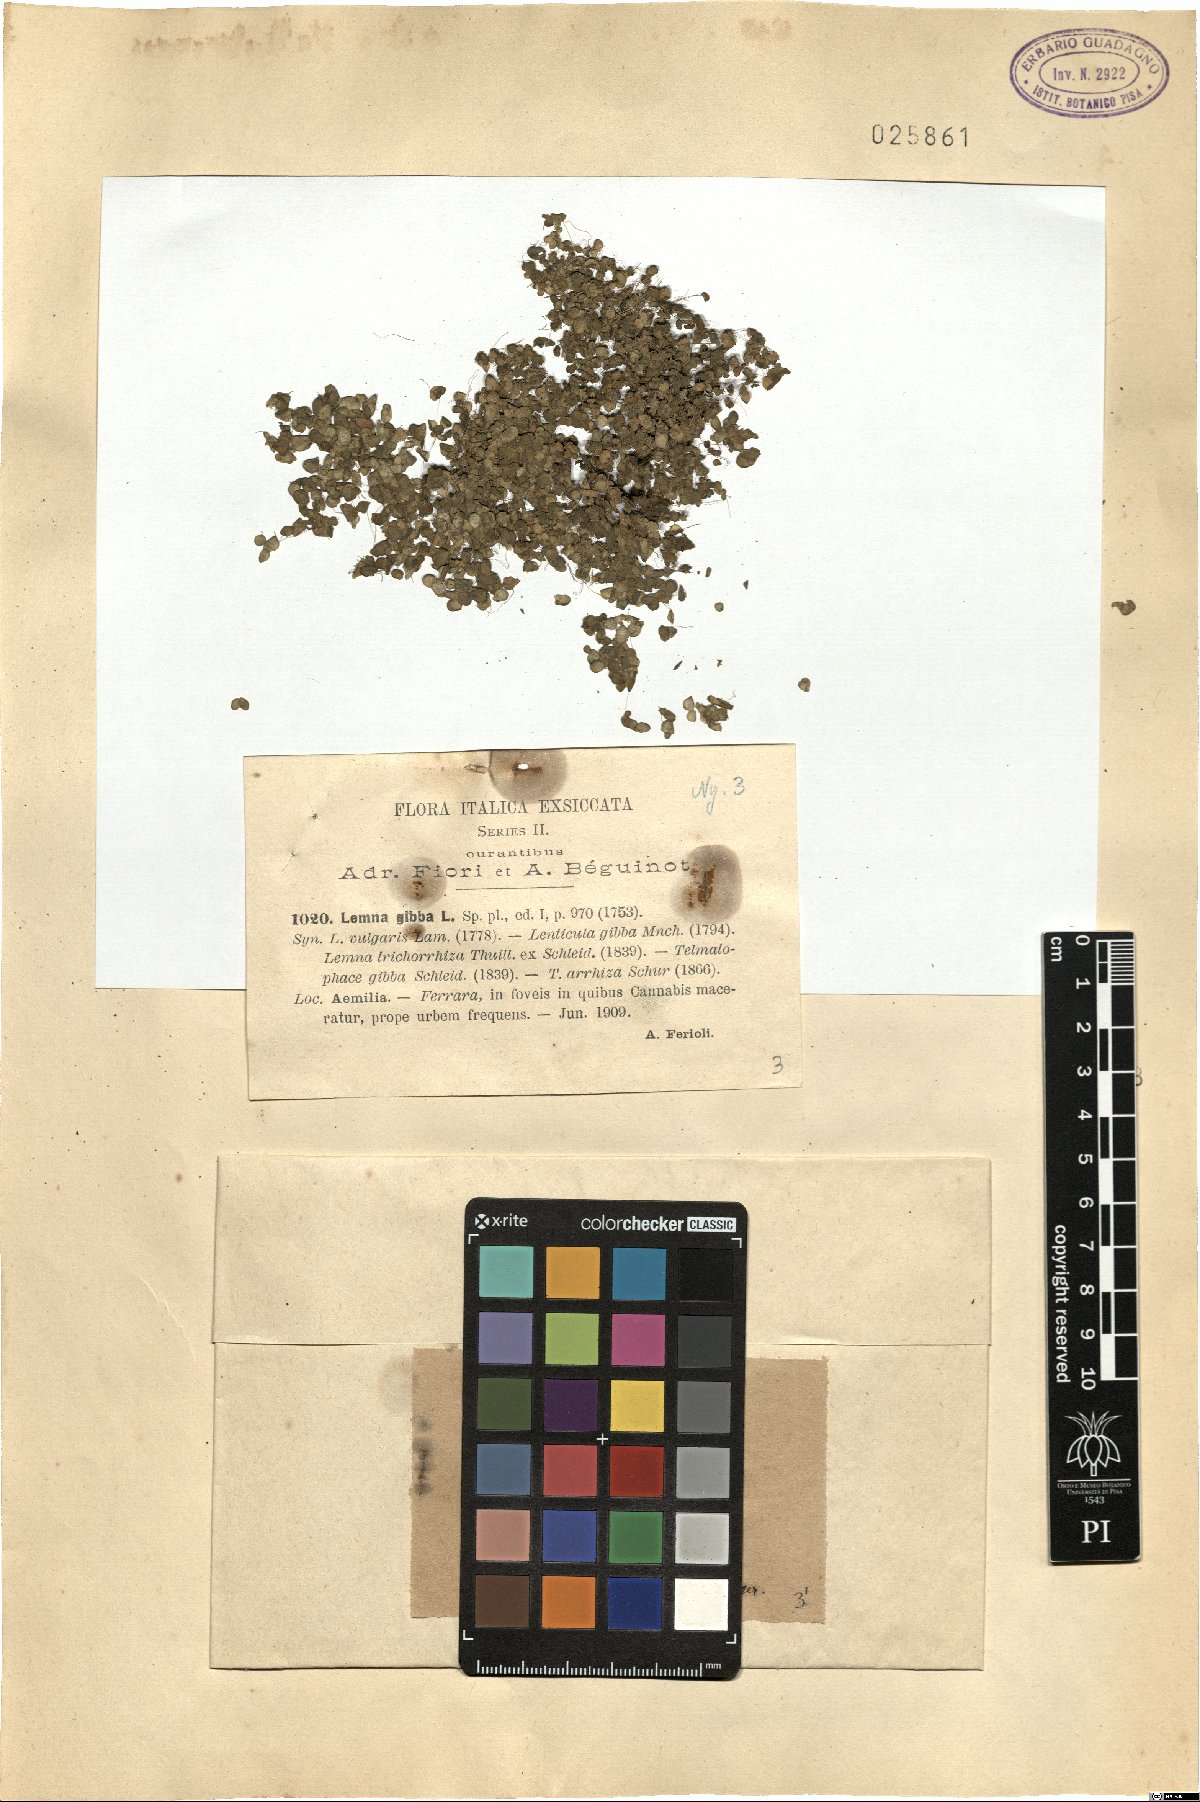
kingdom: Plantae
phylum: Tracheophyta
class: Liliopsida
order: Alismatales
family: Araceae
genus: Lemna
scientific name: Lemna gibba
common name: Fat duckweed
